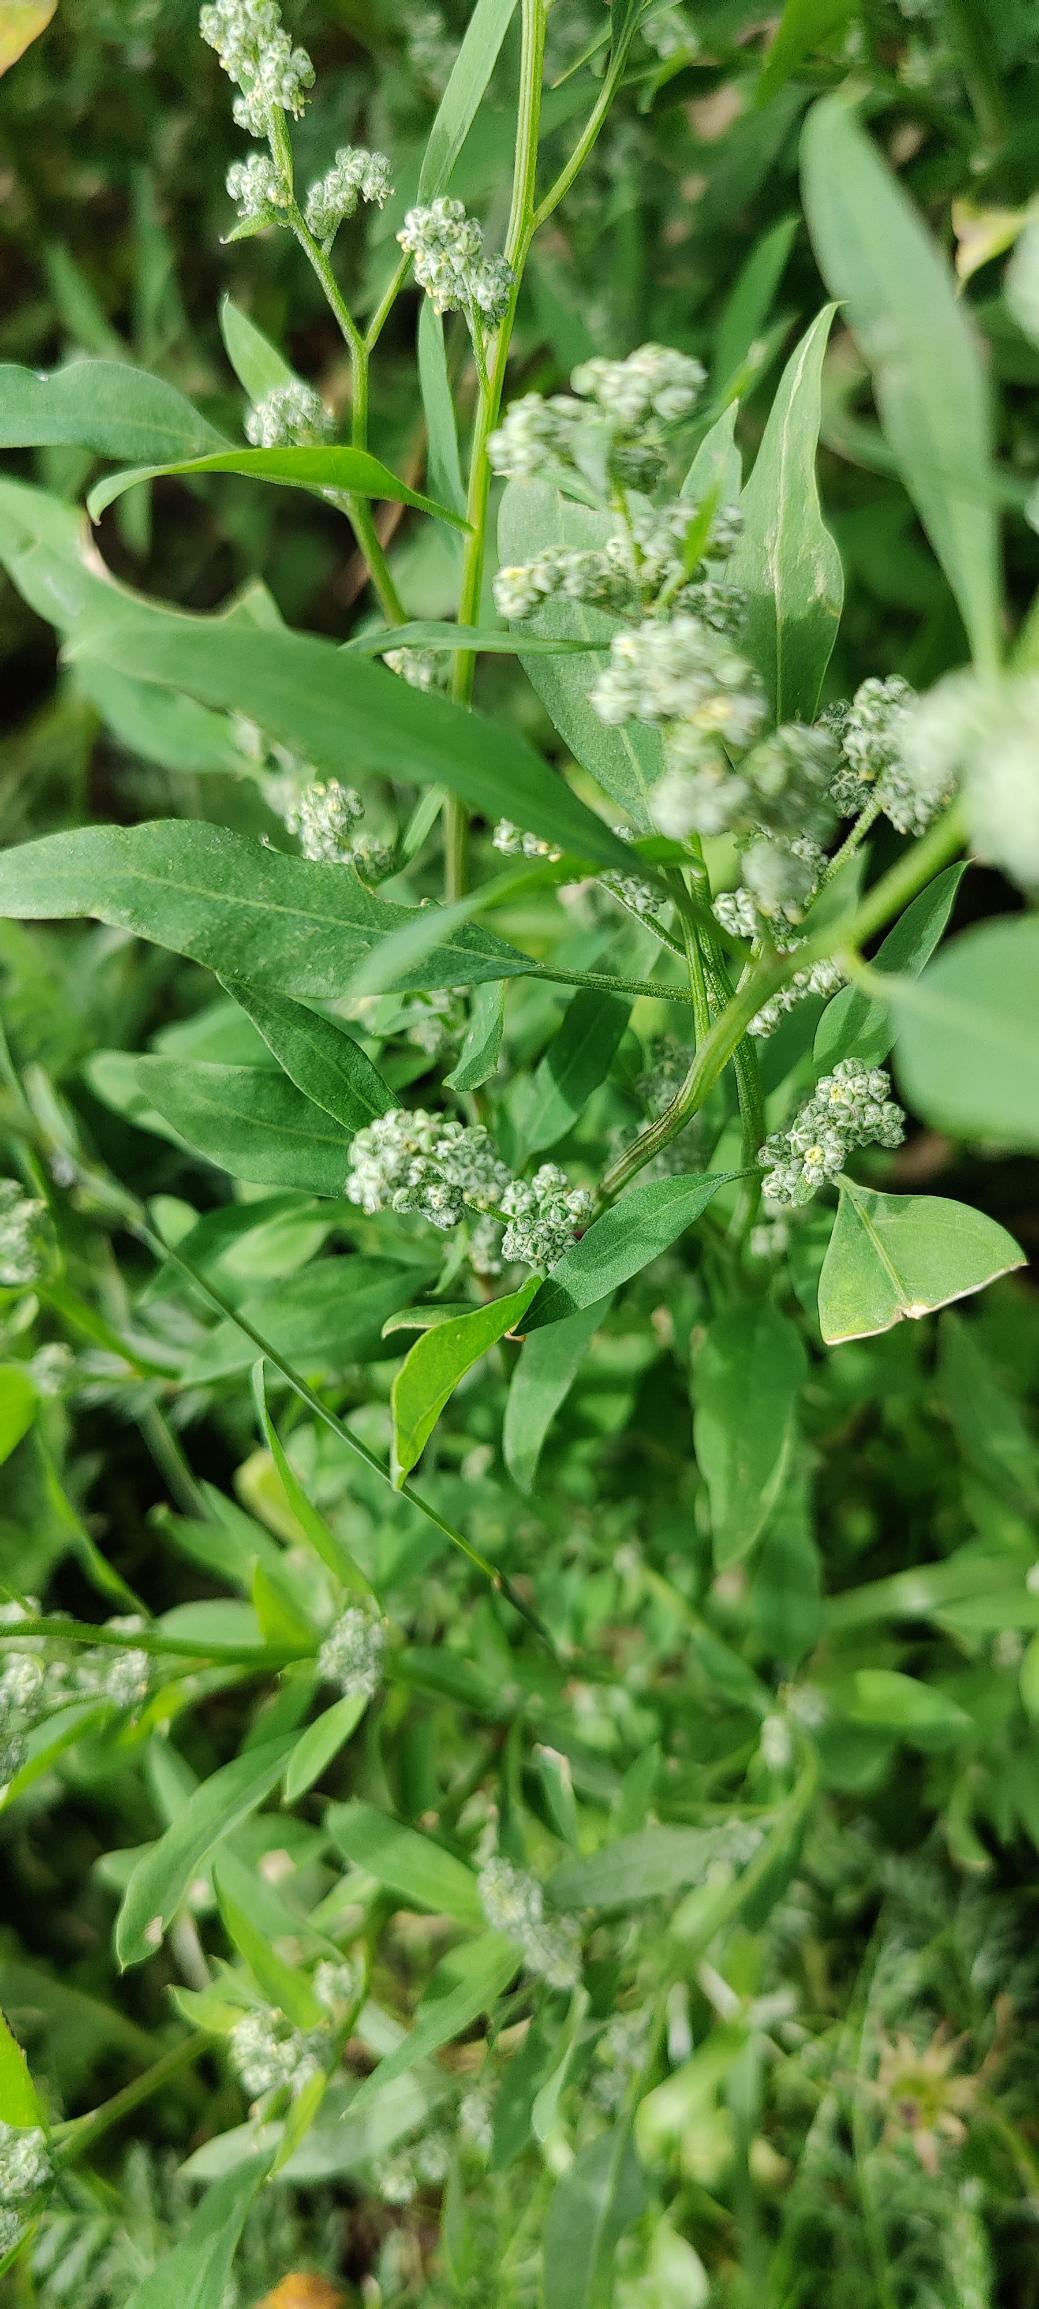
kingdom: Plantae
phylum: Tracheophyta
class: Magnoliopsida
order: Caryophyllales
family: Amaranthaceae
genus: Chenopodium
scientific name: Chenopodium pratericola
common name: Finbladet gåsefod
